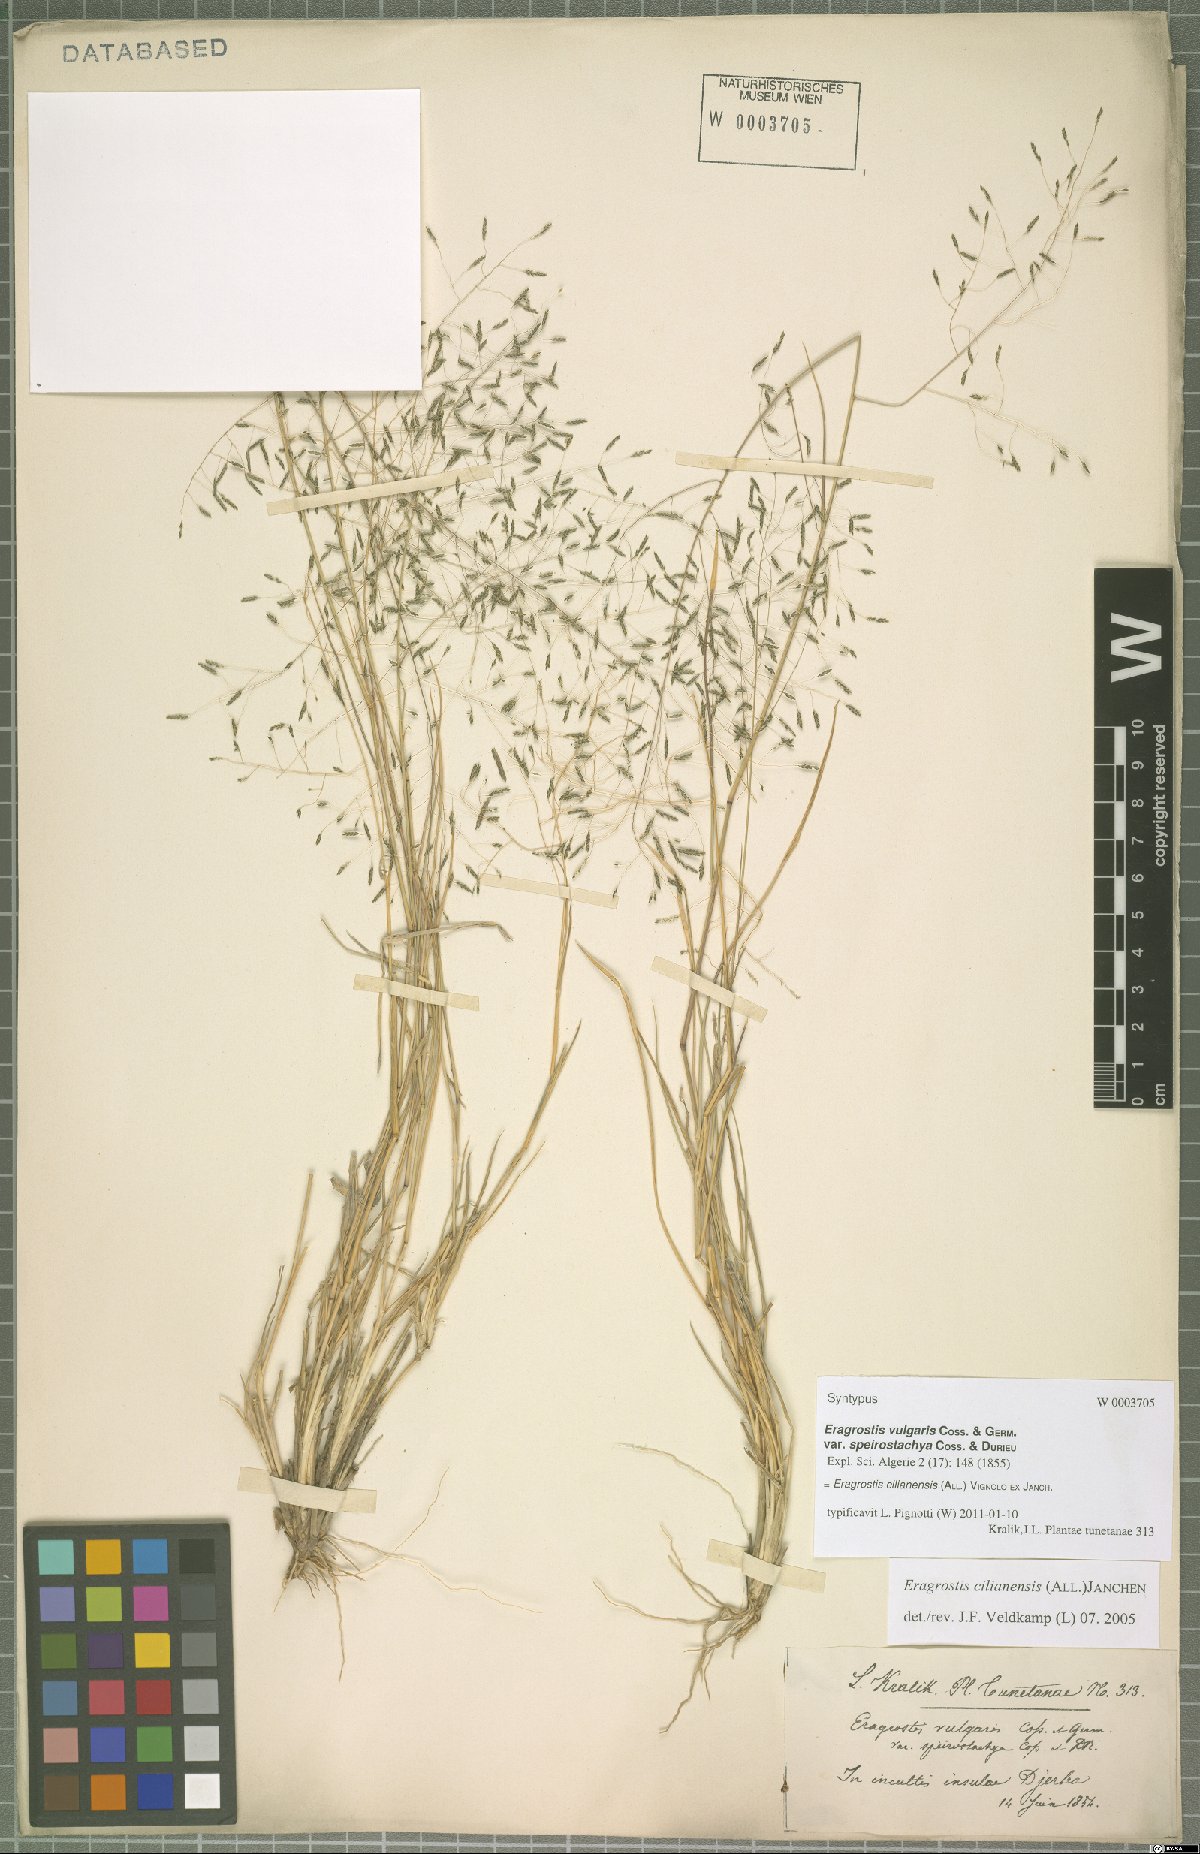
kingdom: Plantae
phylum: Tracheophyta
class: Liliopsida
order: Poales
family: Poaceae
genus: Eragrostis
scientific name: Eragrostis cilianensis
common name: Stinkgrass
